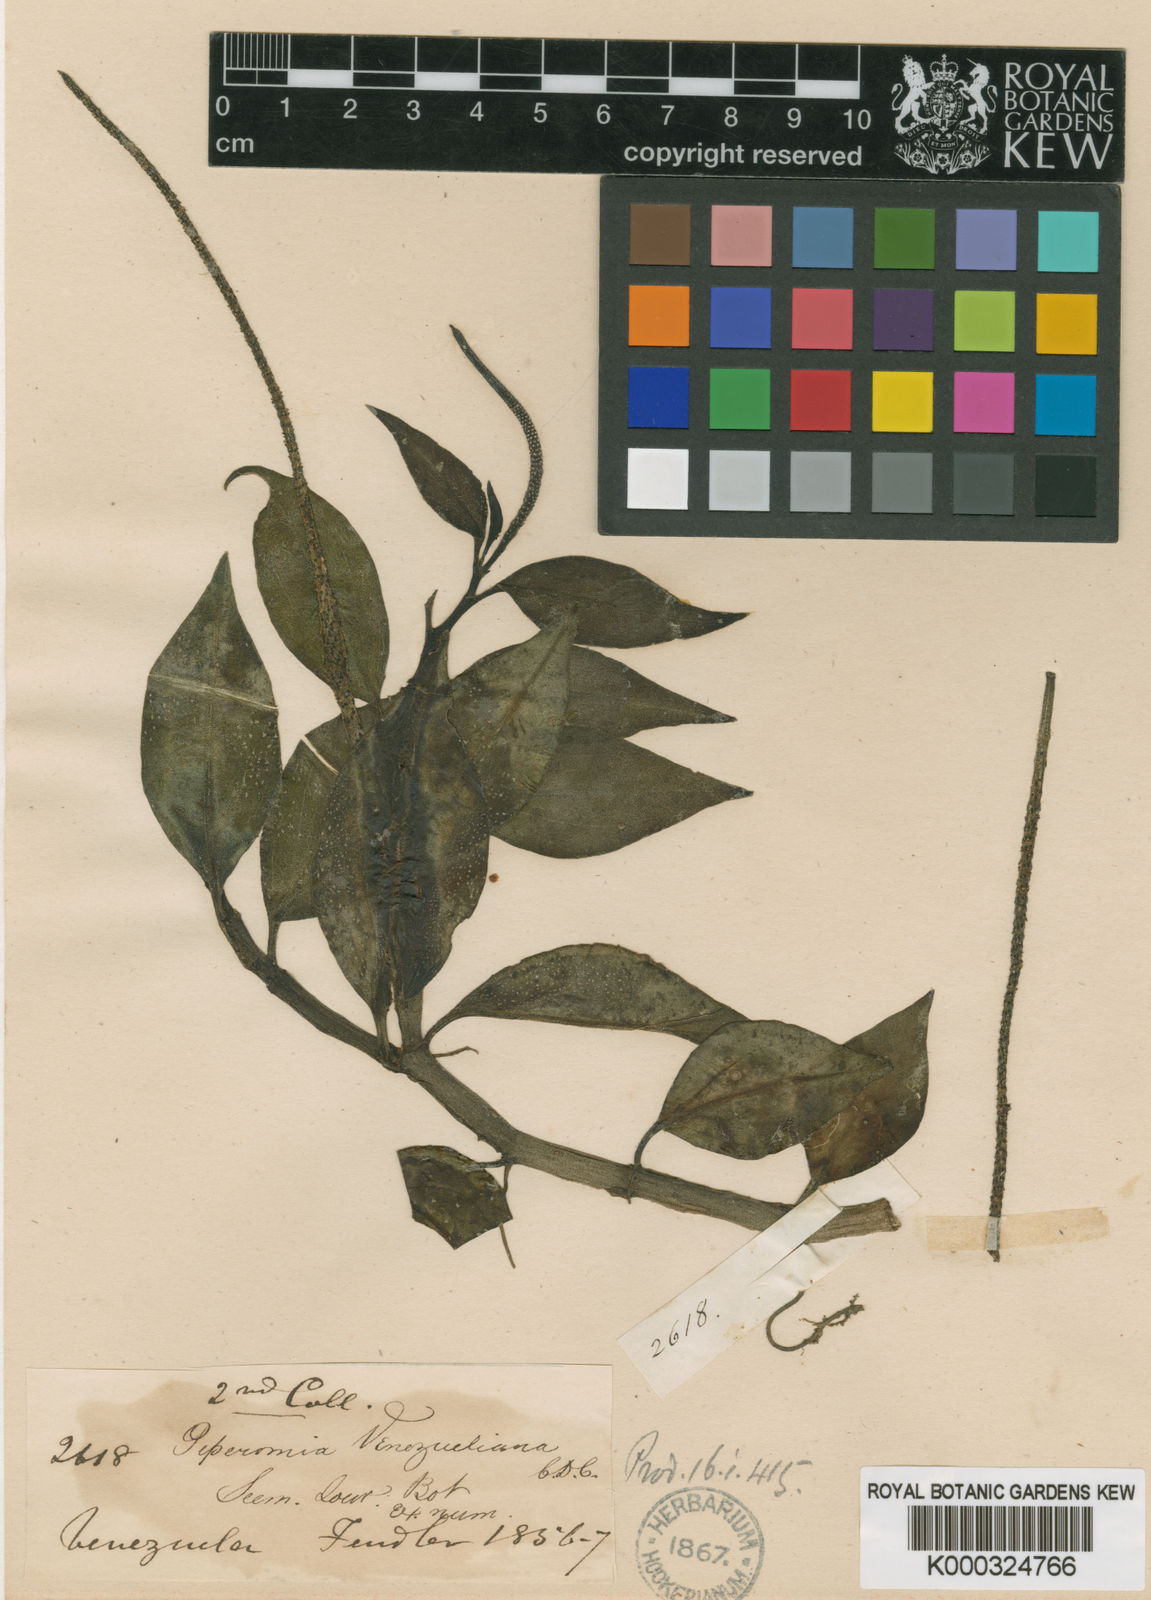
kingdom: Plantae
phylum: Tracheophyta
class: Magnoliopsida
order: Piperales
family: Piperaceae
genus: Peperomia
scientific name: Peperomia venezueliana
